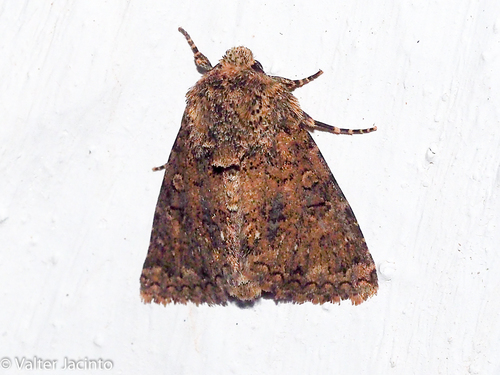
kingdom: Animalia
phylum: Arthropoda
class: Insecta
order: Lepidoptera
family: Noctuidae
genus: Recoropha
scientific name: Recoropha canteneri
